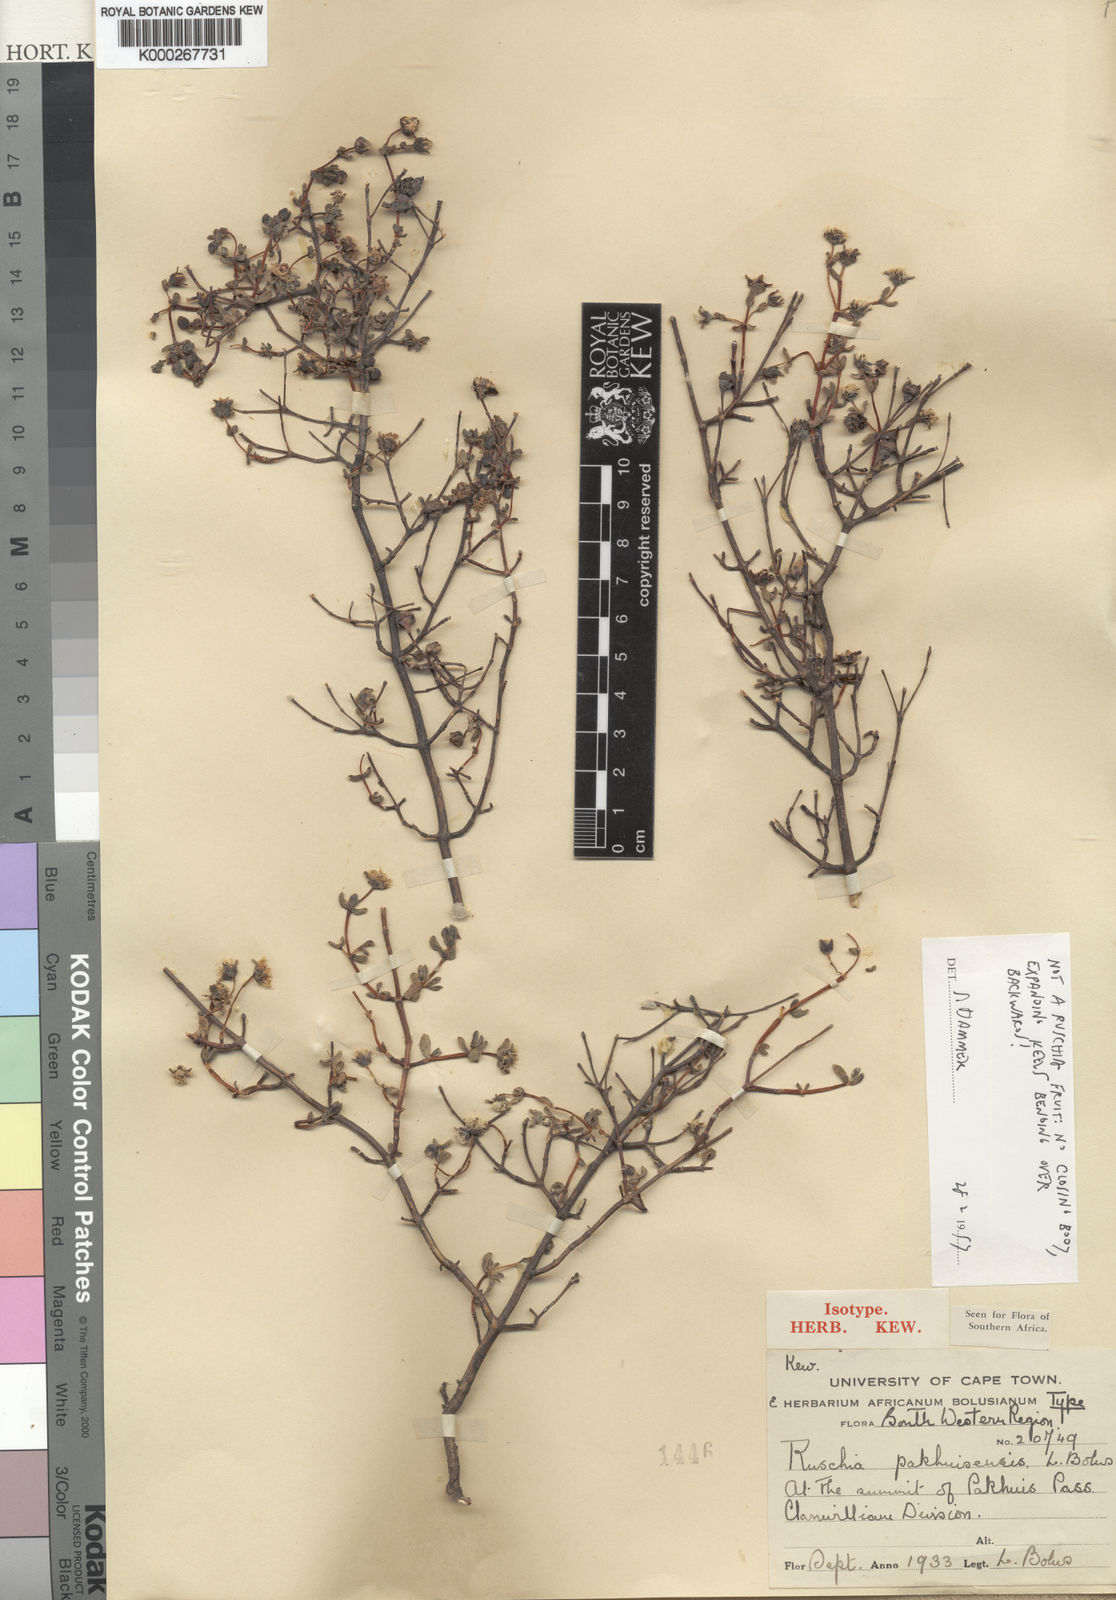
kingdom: Plantae
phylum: Tracheophyta
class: Magnoliopsida
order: Caryophyllales
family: Aizoaceae
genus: Ruschia
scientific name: Ruschia obtusa
